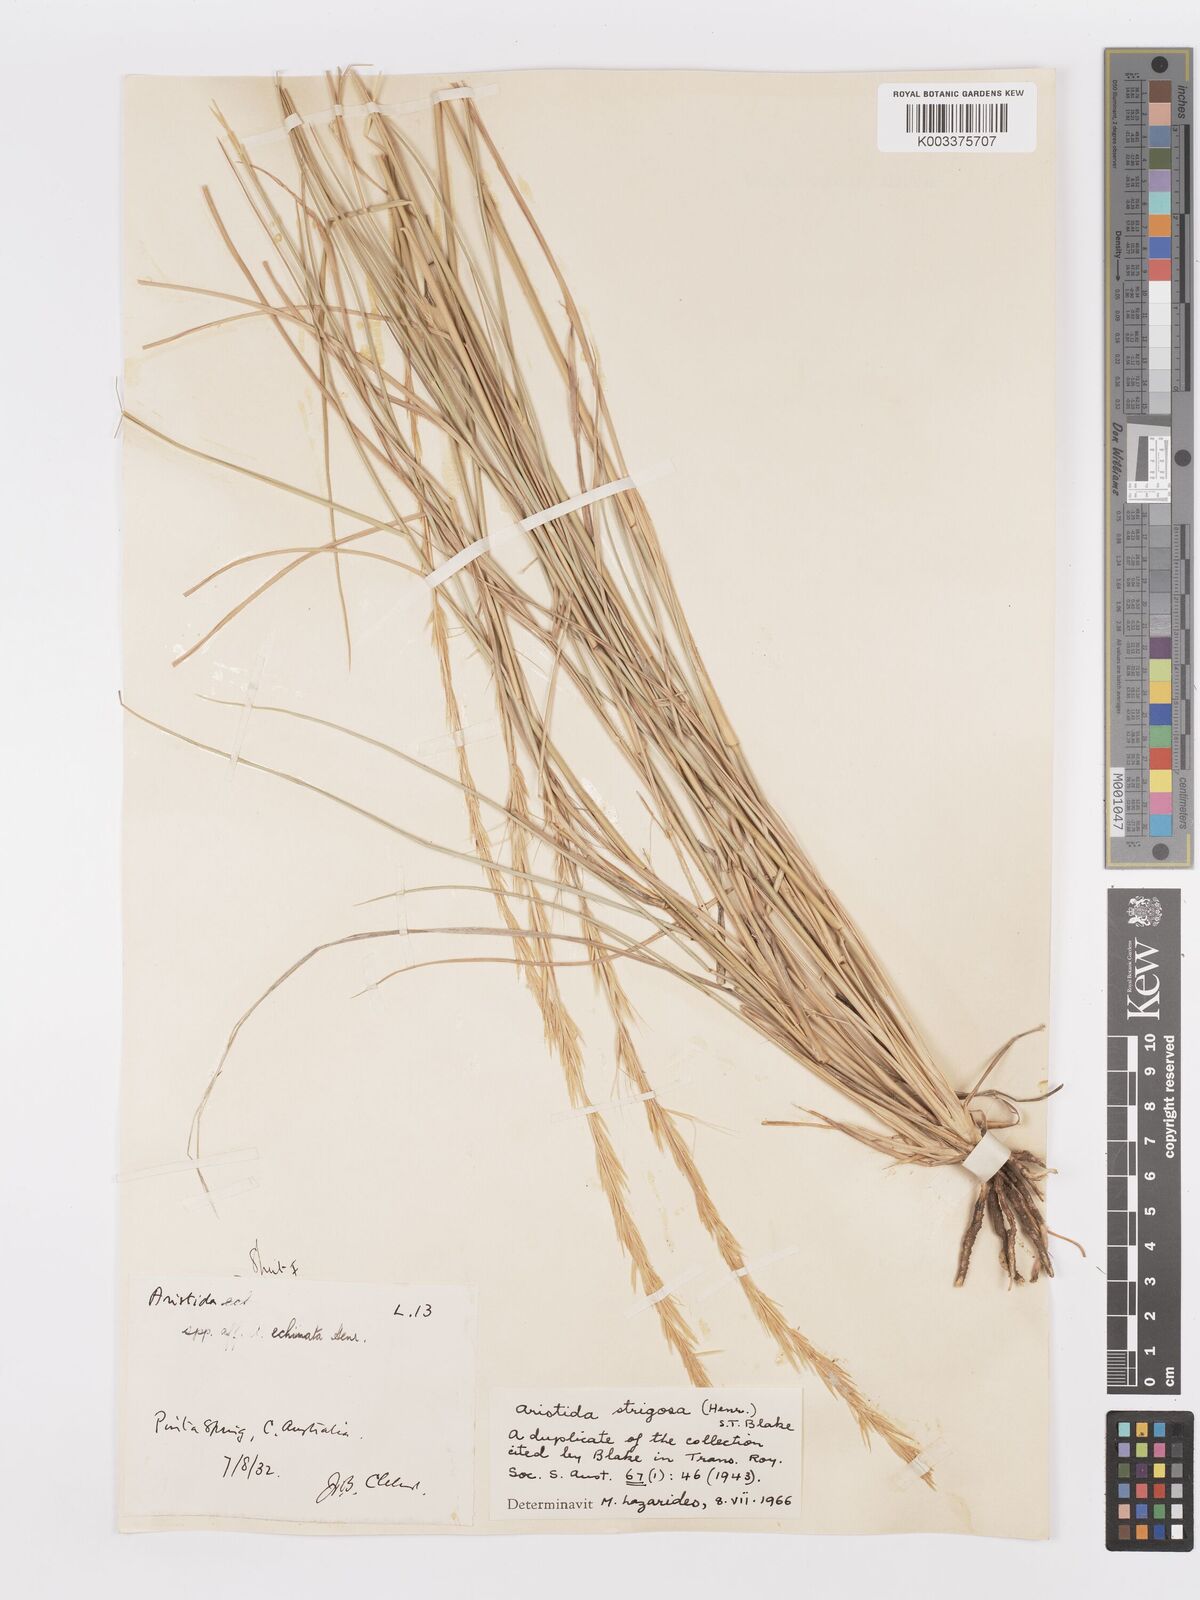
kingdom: Plantae
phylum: Tracheophyta
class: Liliopsida
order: Poales
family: Poaceae
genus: Aristida
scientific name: Aristida strigosa
